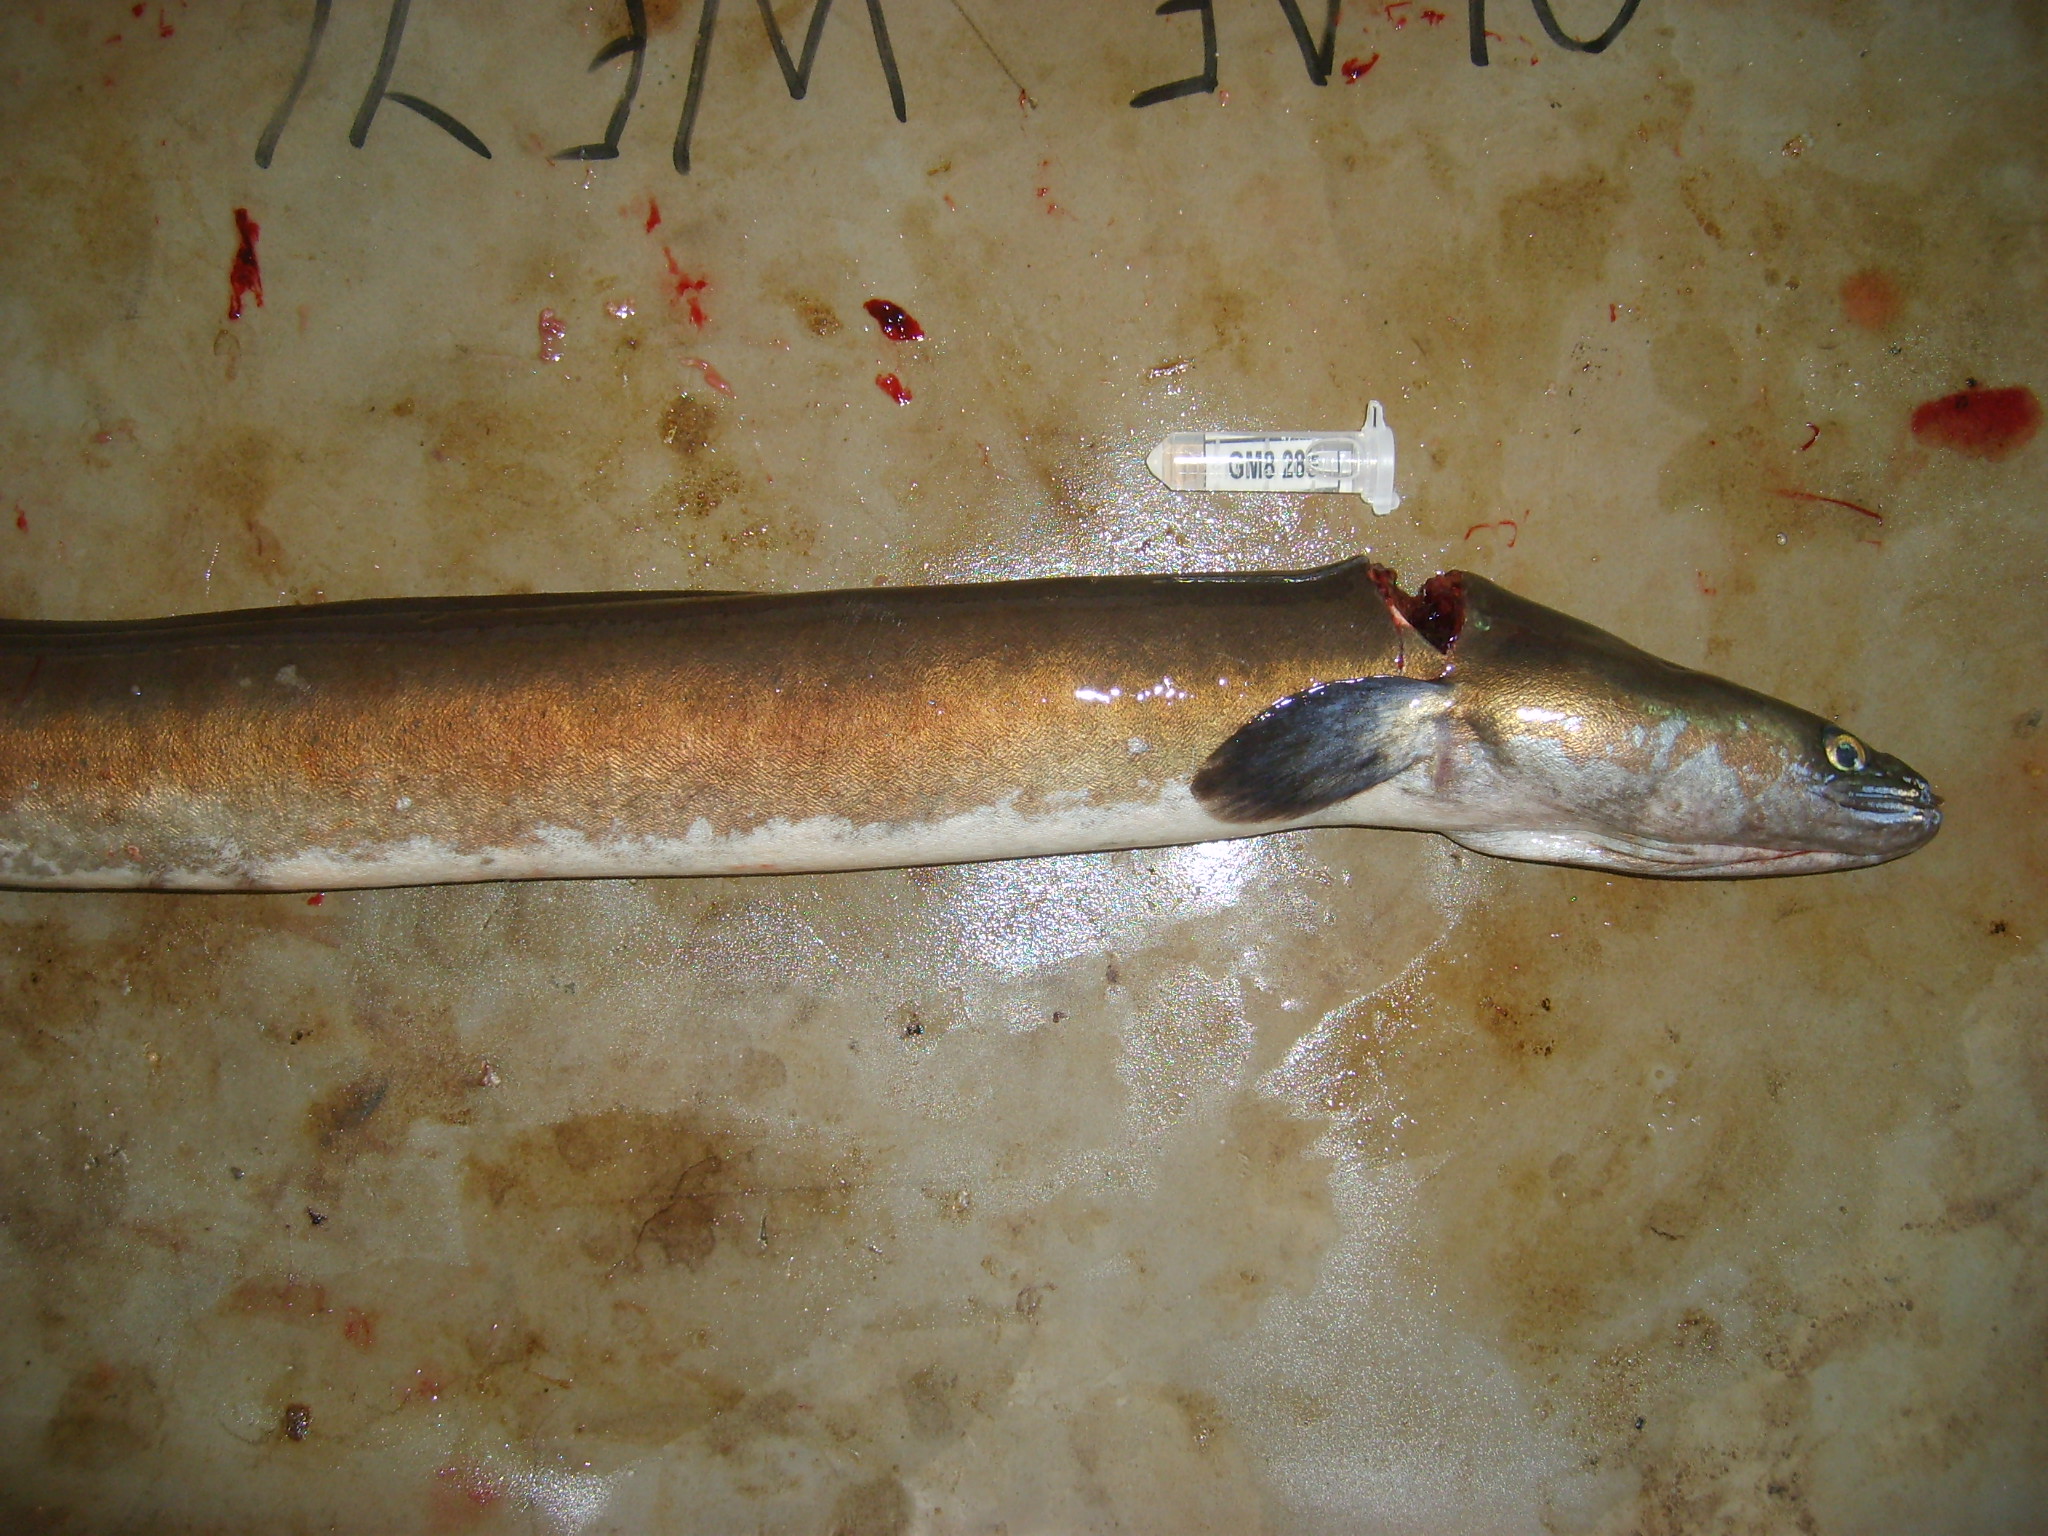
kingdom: Animalia
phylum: Chordata
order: Anguilliformes
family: Anguillidae
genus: Anguilla
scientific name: Anguilla mossambica
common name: African longfin eel
